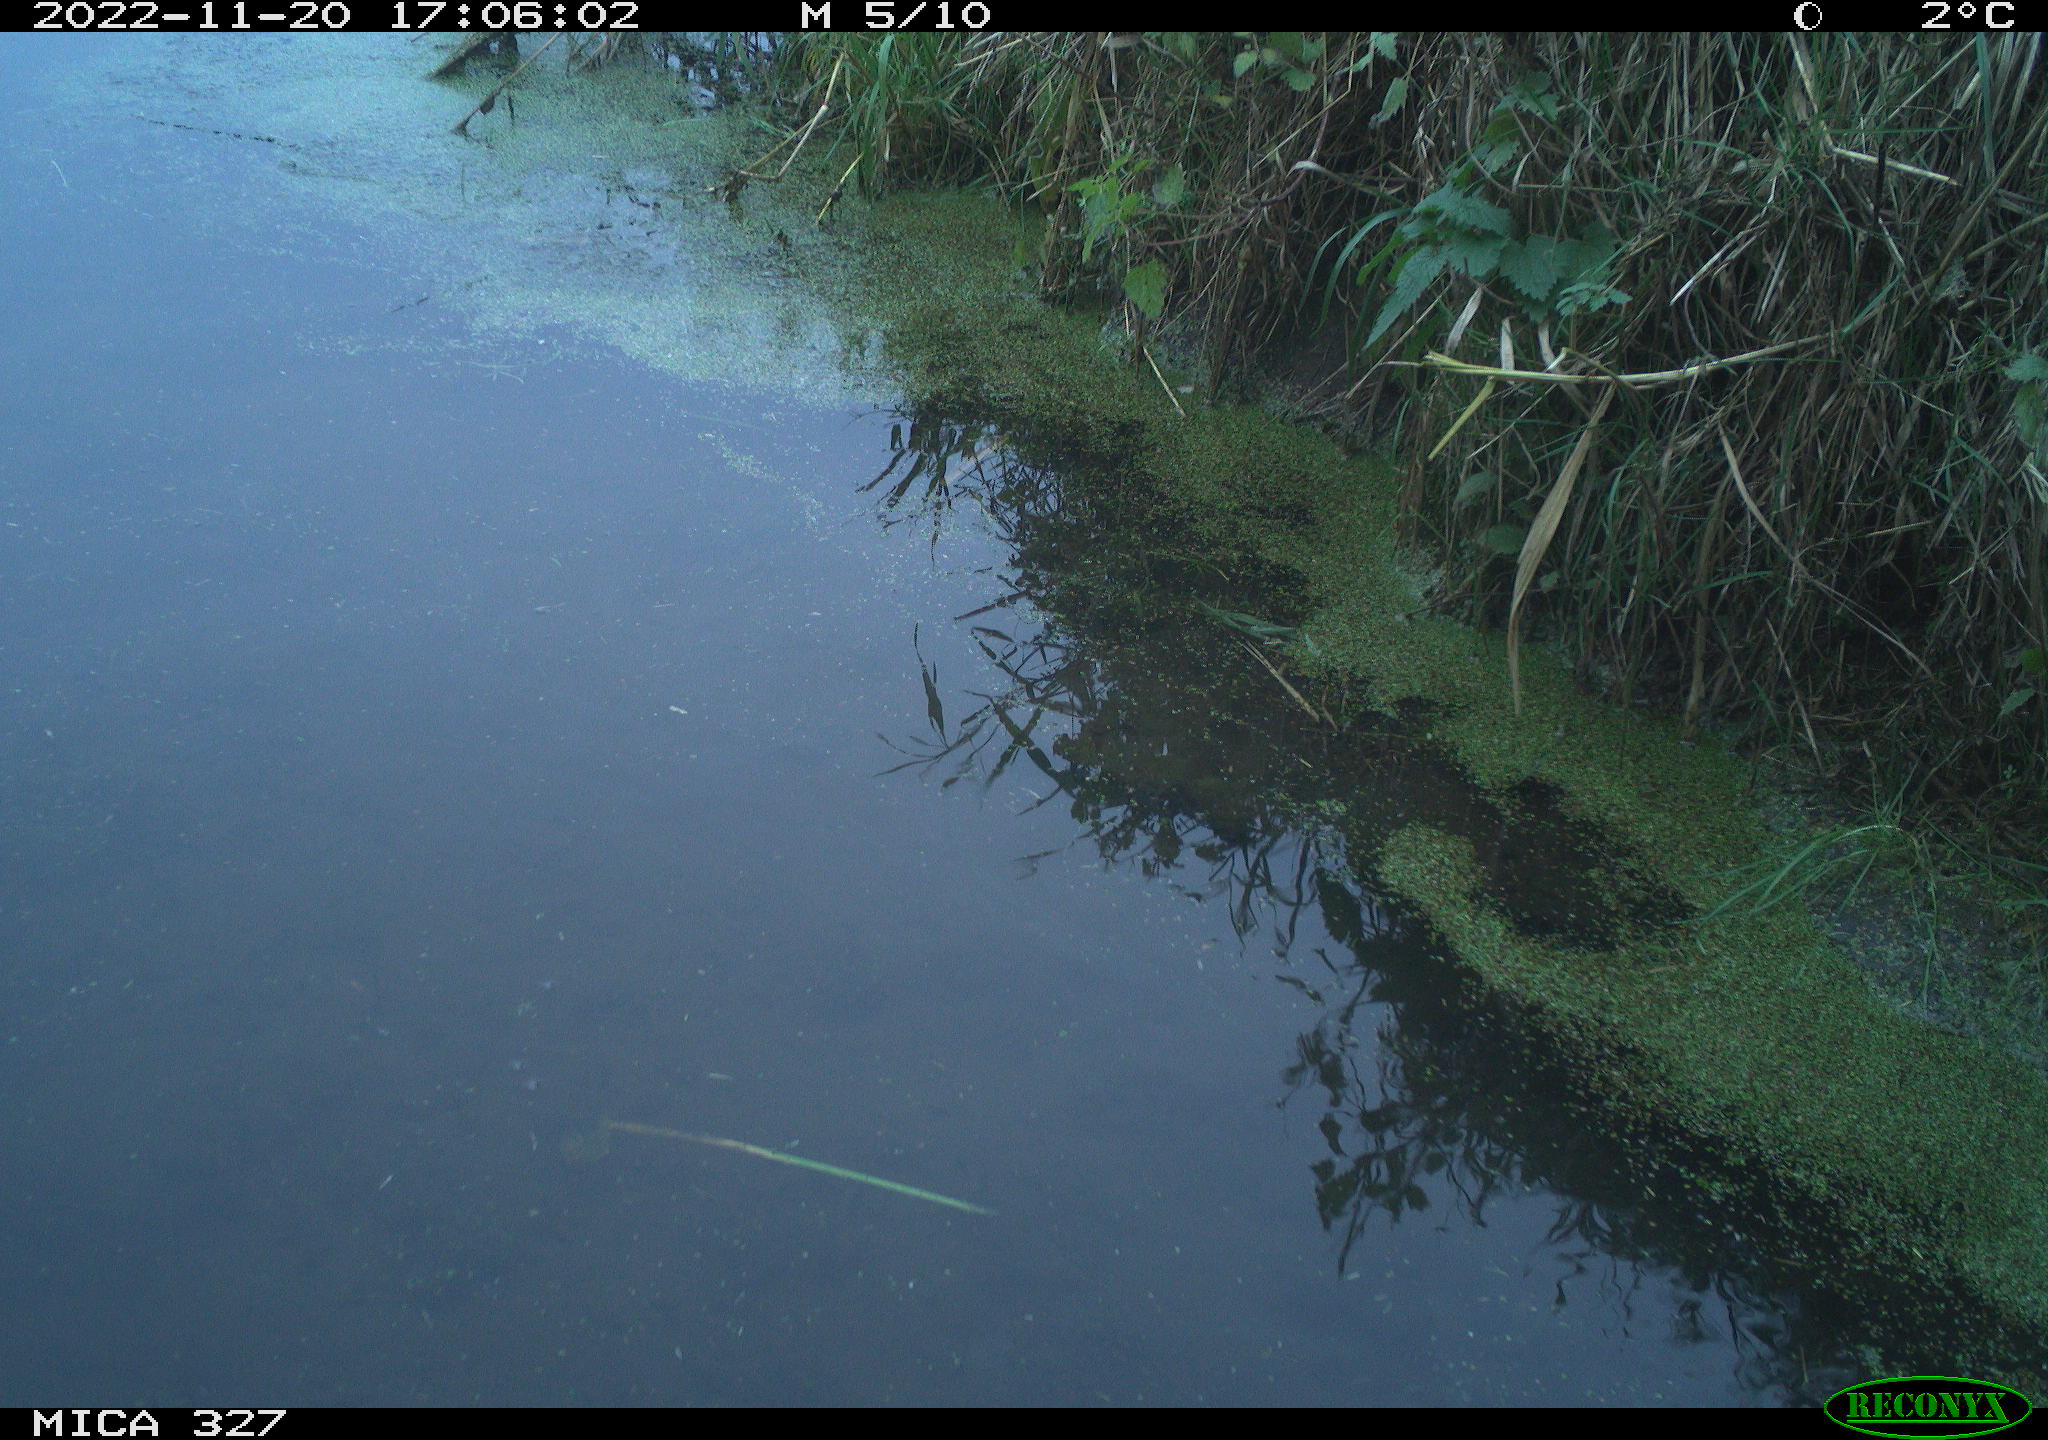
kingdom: Animalia
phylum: Chordata
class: Aves
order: Gruiformes
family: Rallidae
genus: Gallinula
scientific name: Gallinula chloropus
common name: Common moorhen
